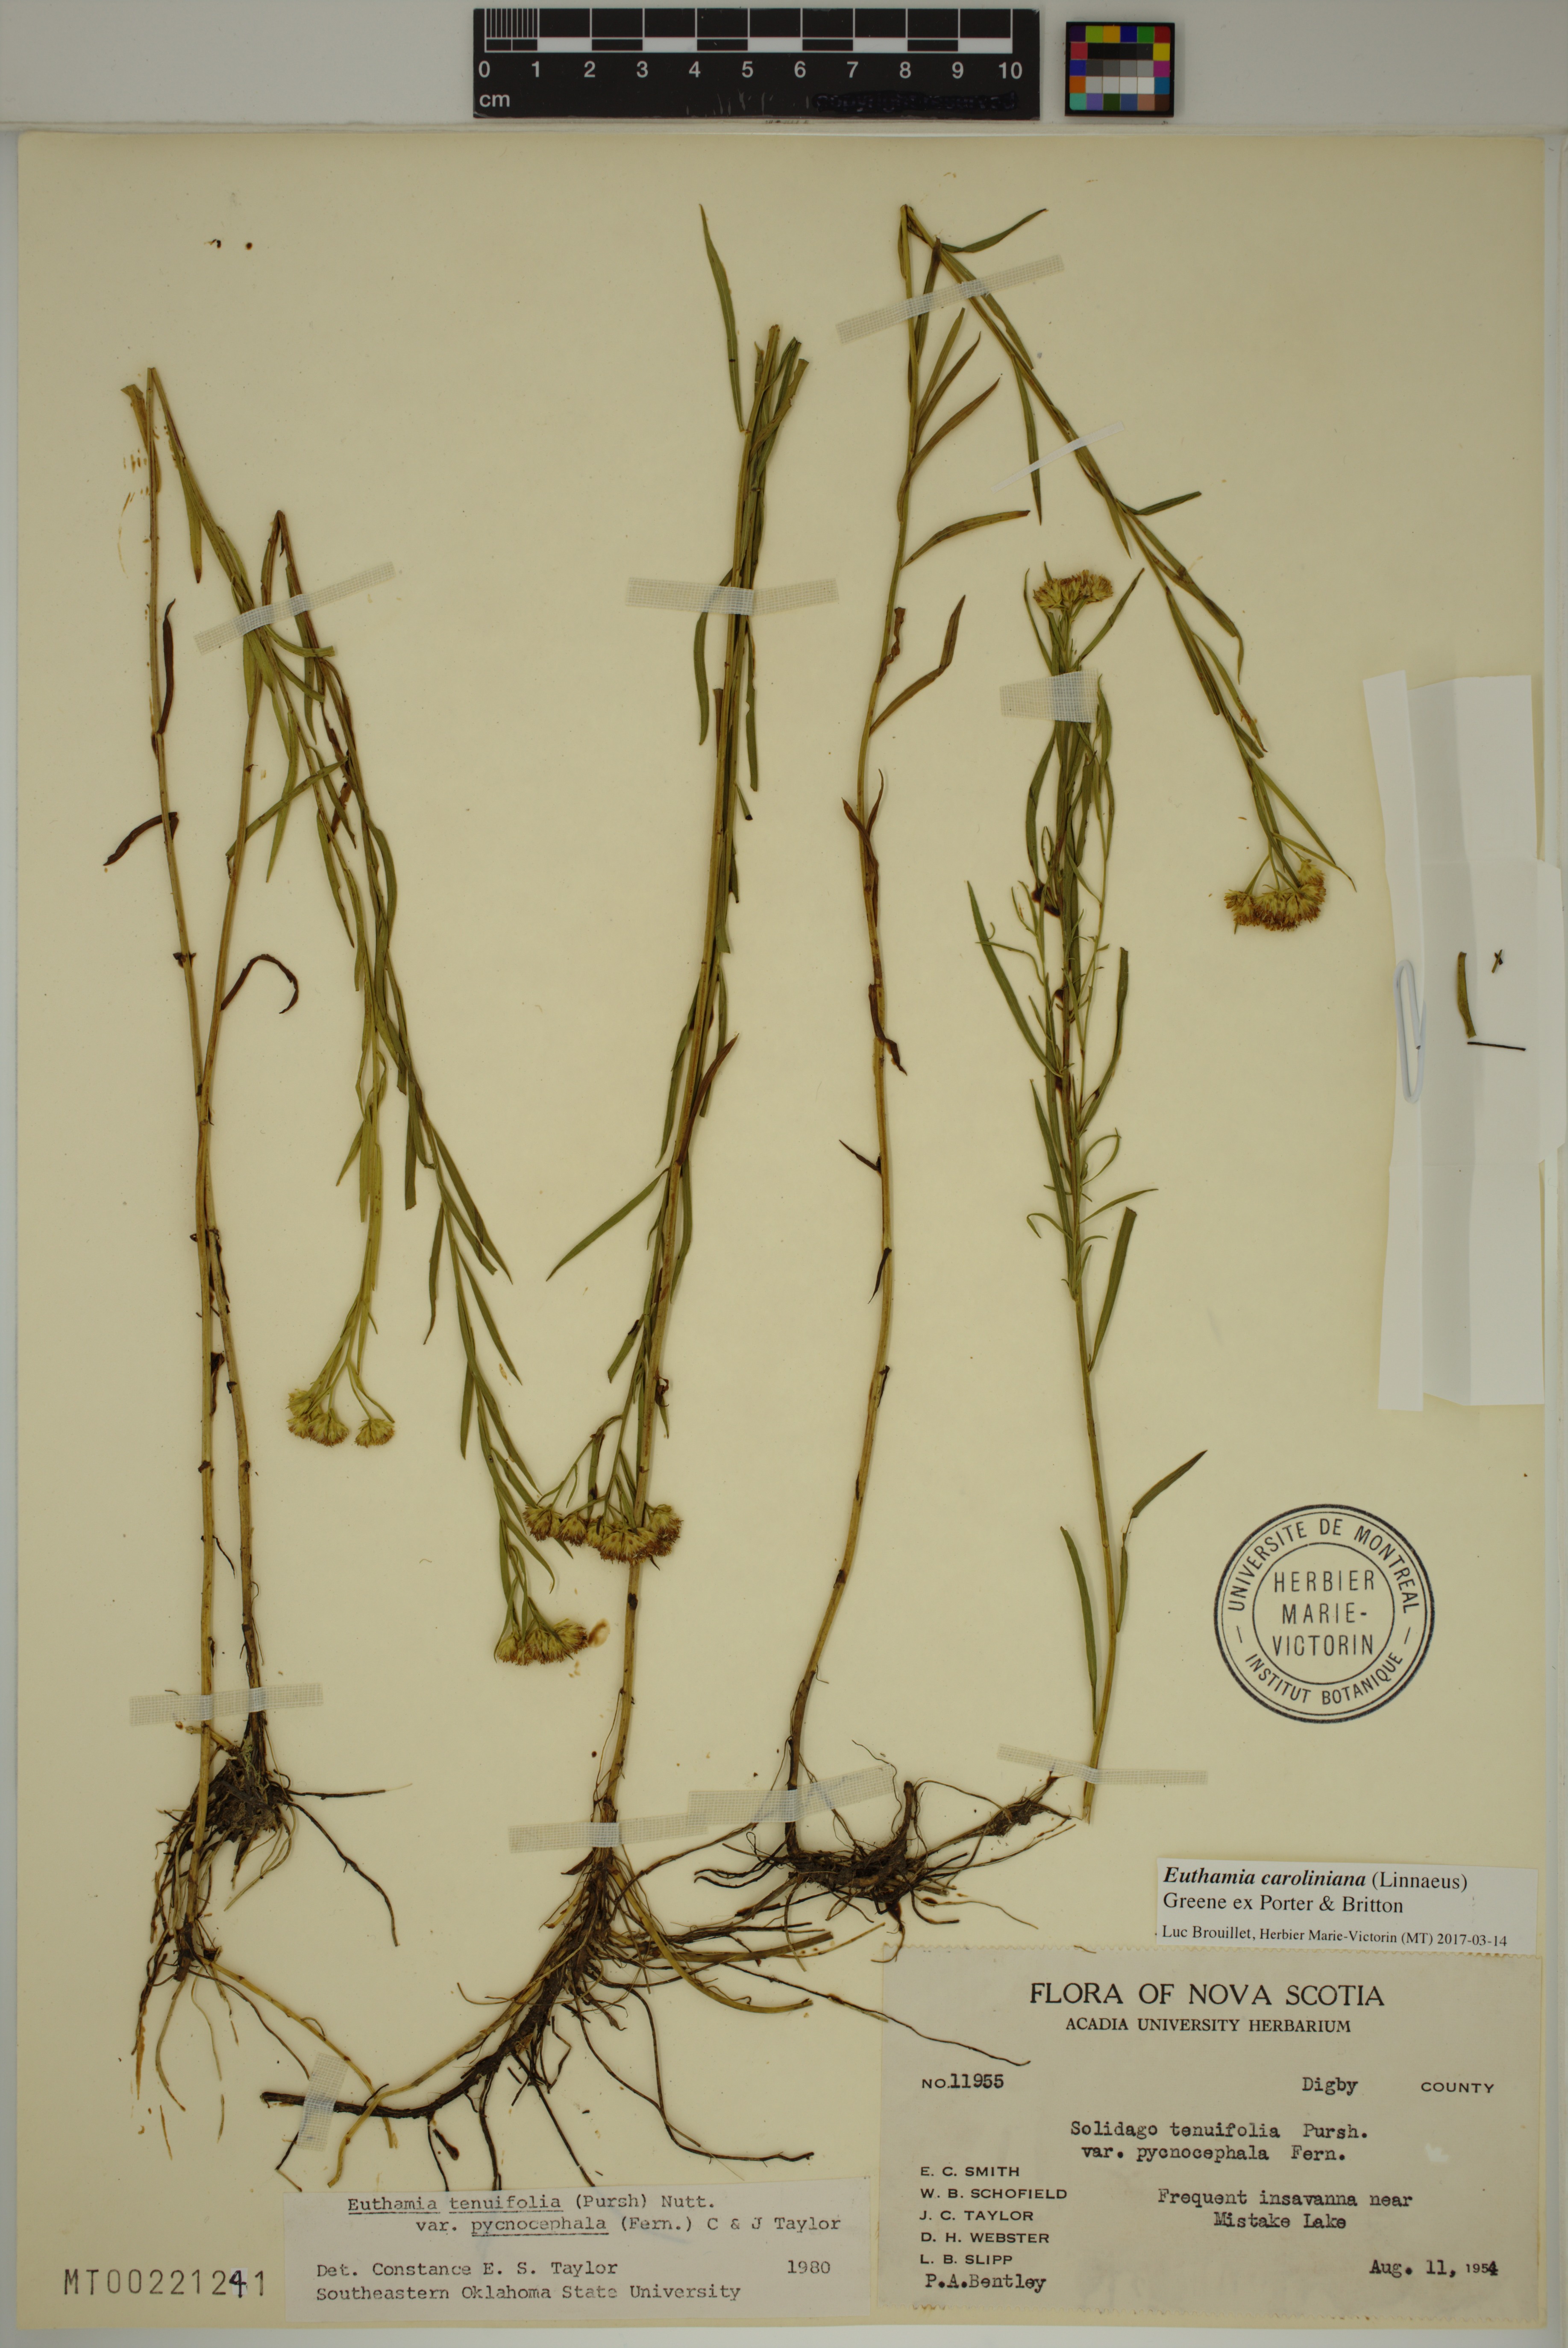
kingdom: Plantae
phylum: Tracheophyta
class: Magnoliopsida
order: Asterales
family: Asteraceae
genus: Euthamia
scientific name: Euthamia galetorum
